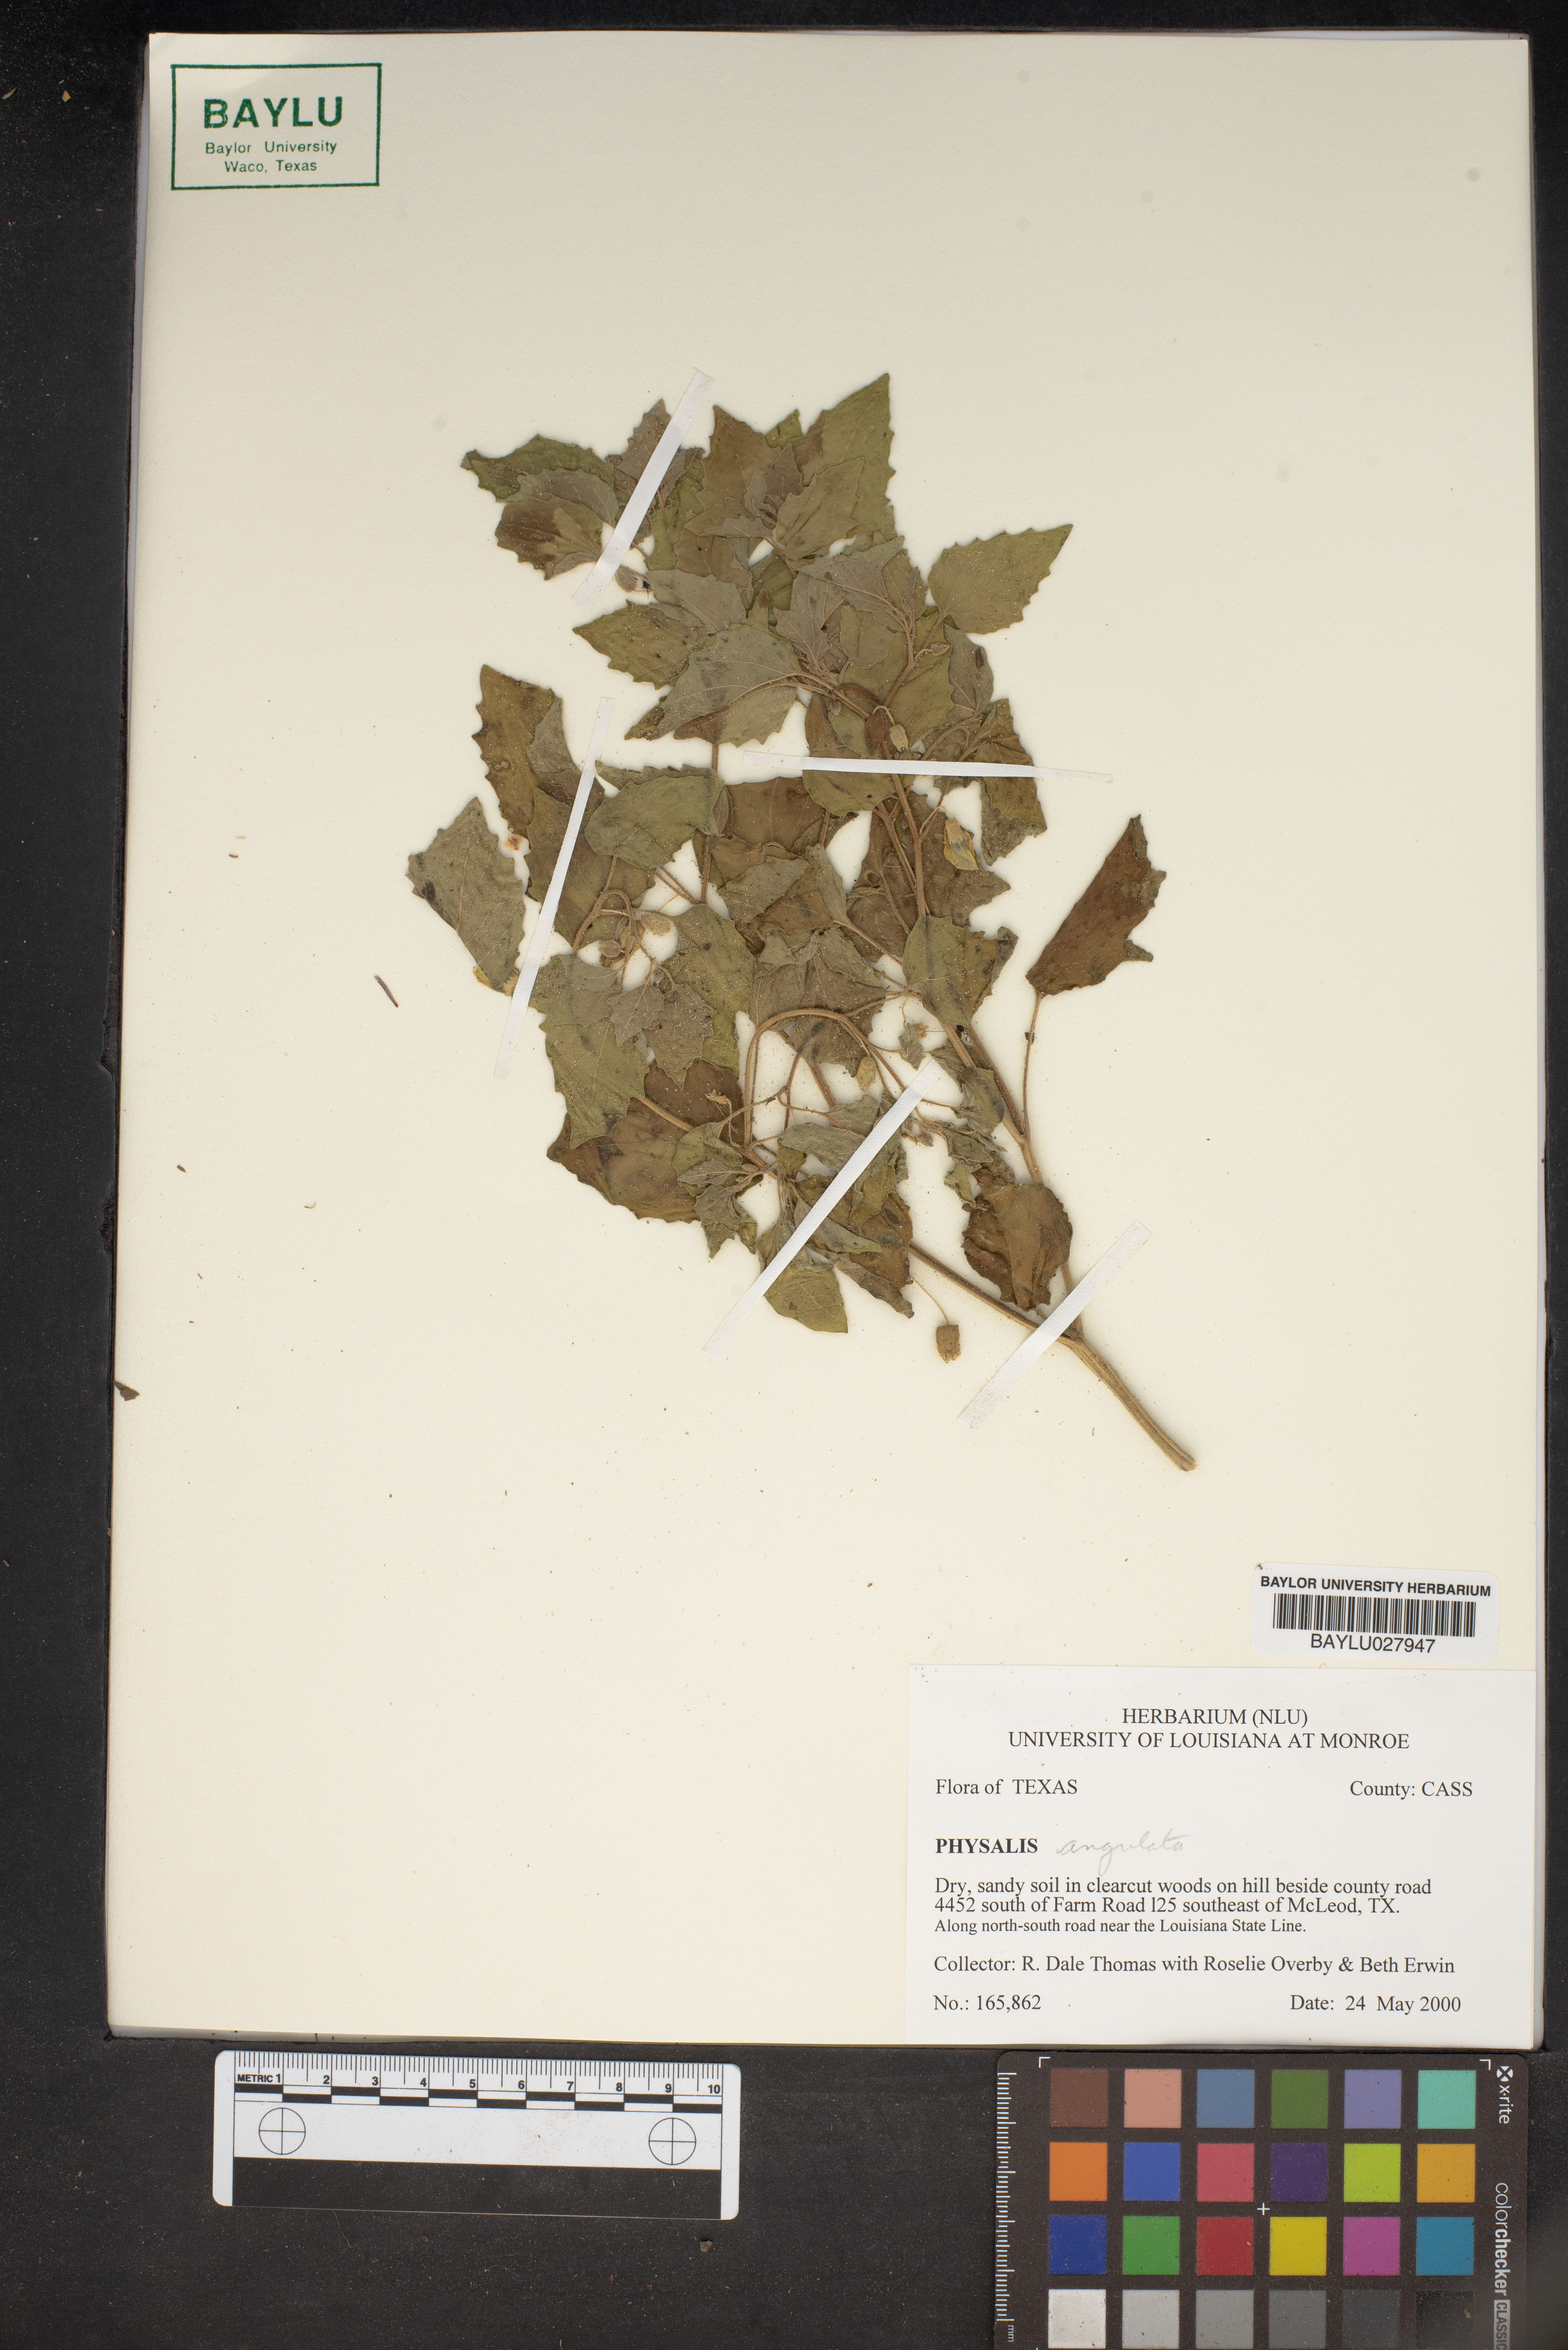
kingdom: Plantae
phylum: Tracheophyta
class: Magnoliopsida
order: Solanales
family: Solanaceae
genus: Physalis
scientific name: Physalis angulata
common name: Angular winter-cherry
